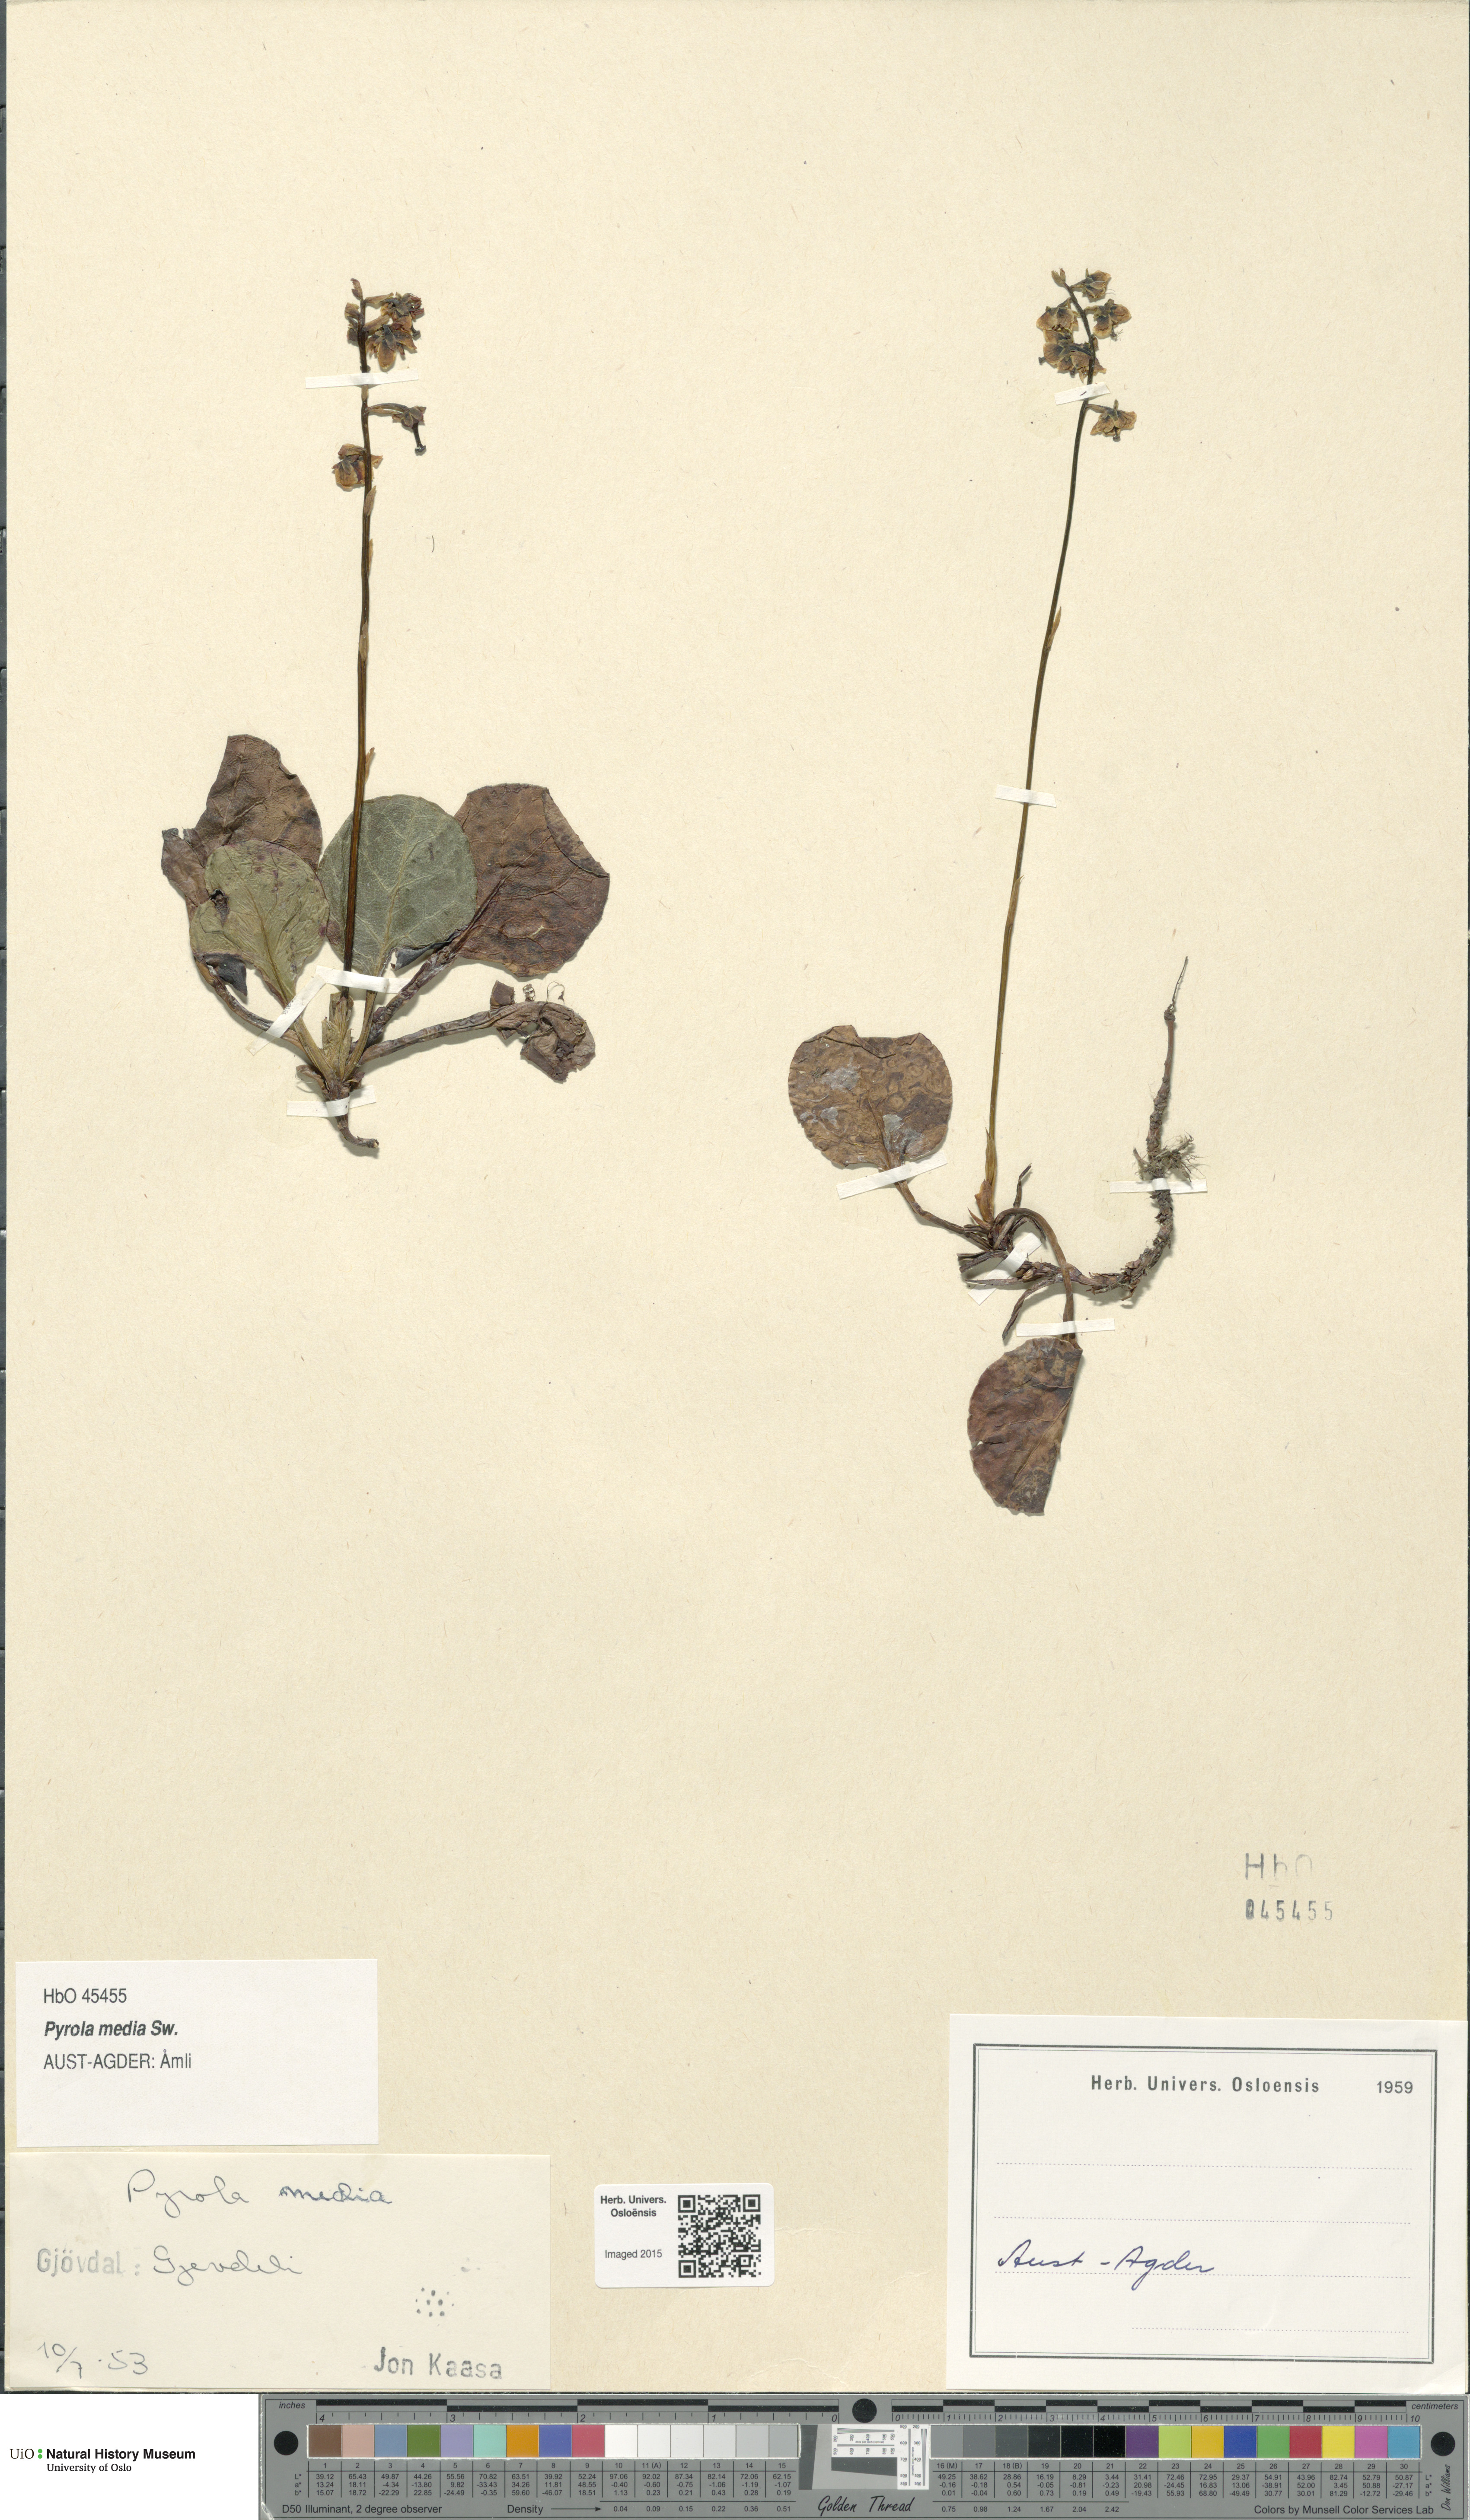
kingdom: Plantae
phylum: Tracheophyta
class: Magnoliopsida
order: Ericales
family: Ericaceae
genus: Pyrola
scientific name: Pyrola media
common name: Intermediate wintergreen
